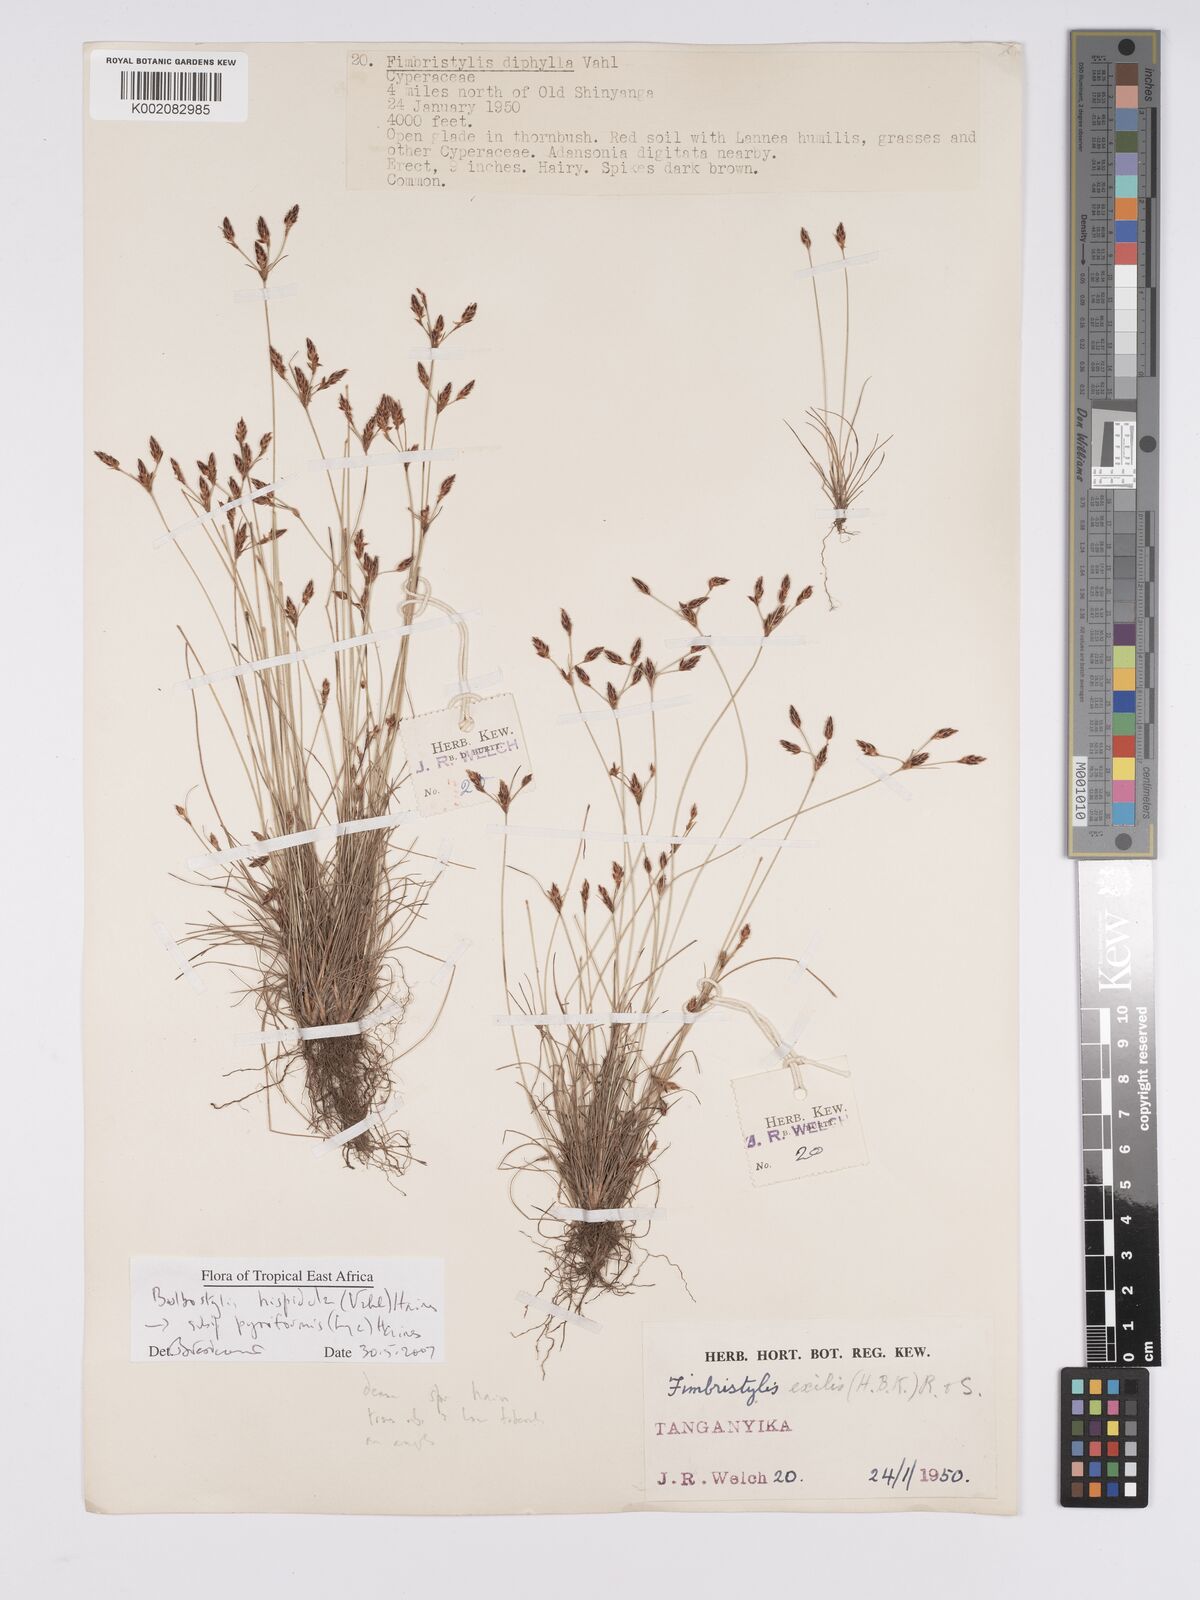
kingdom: Plantae
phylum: Tracheophyta
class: Liliopsida
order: Poales
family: Cyperaceae
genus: Bulbostylis
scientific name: Bulbostylis hispidula
